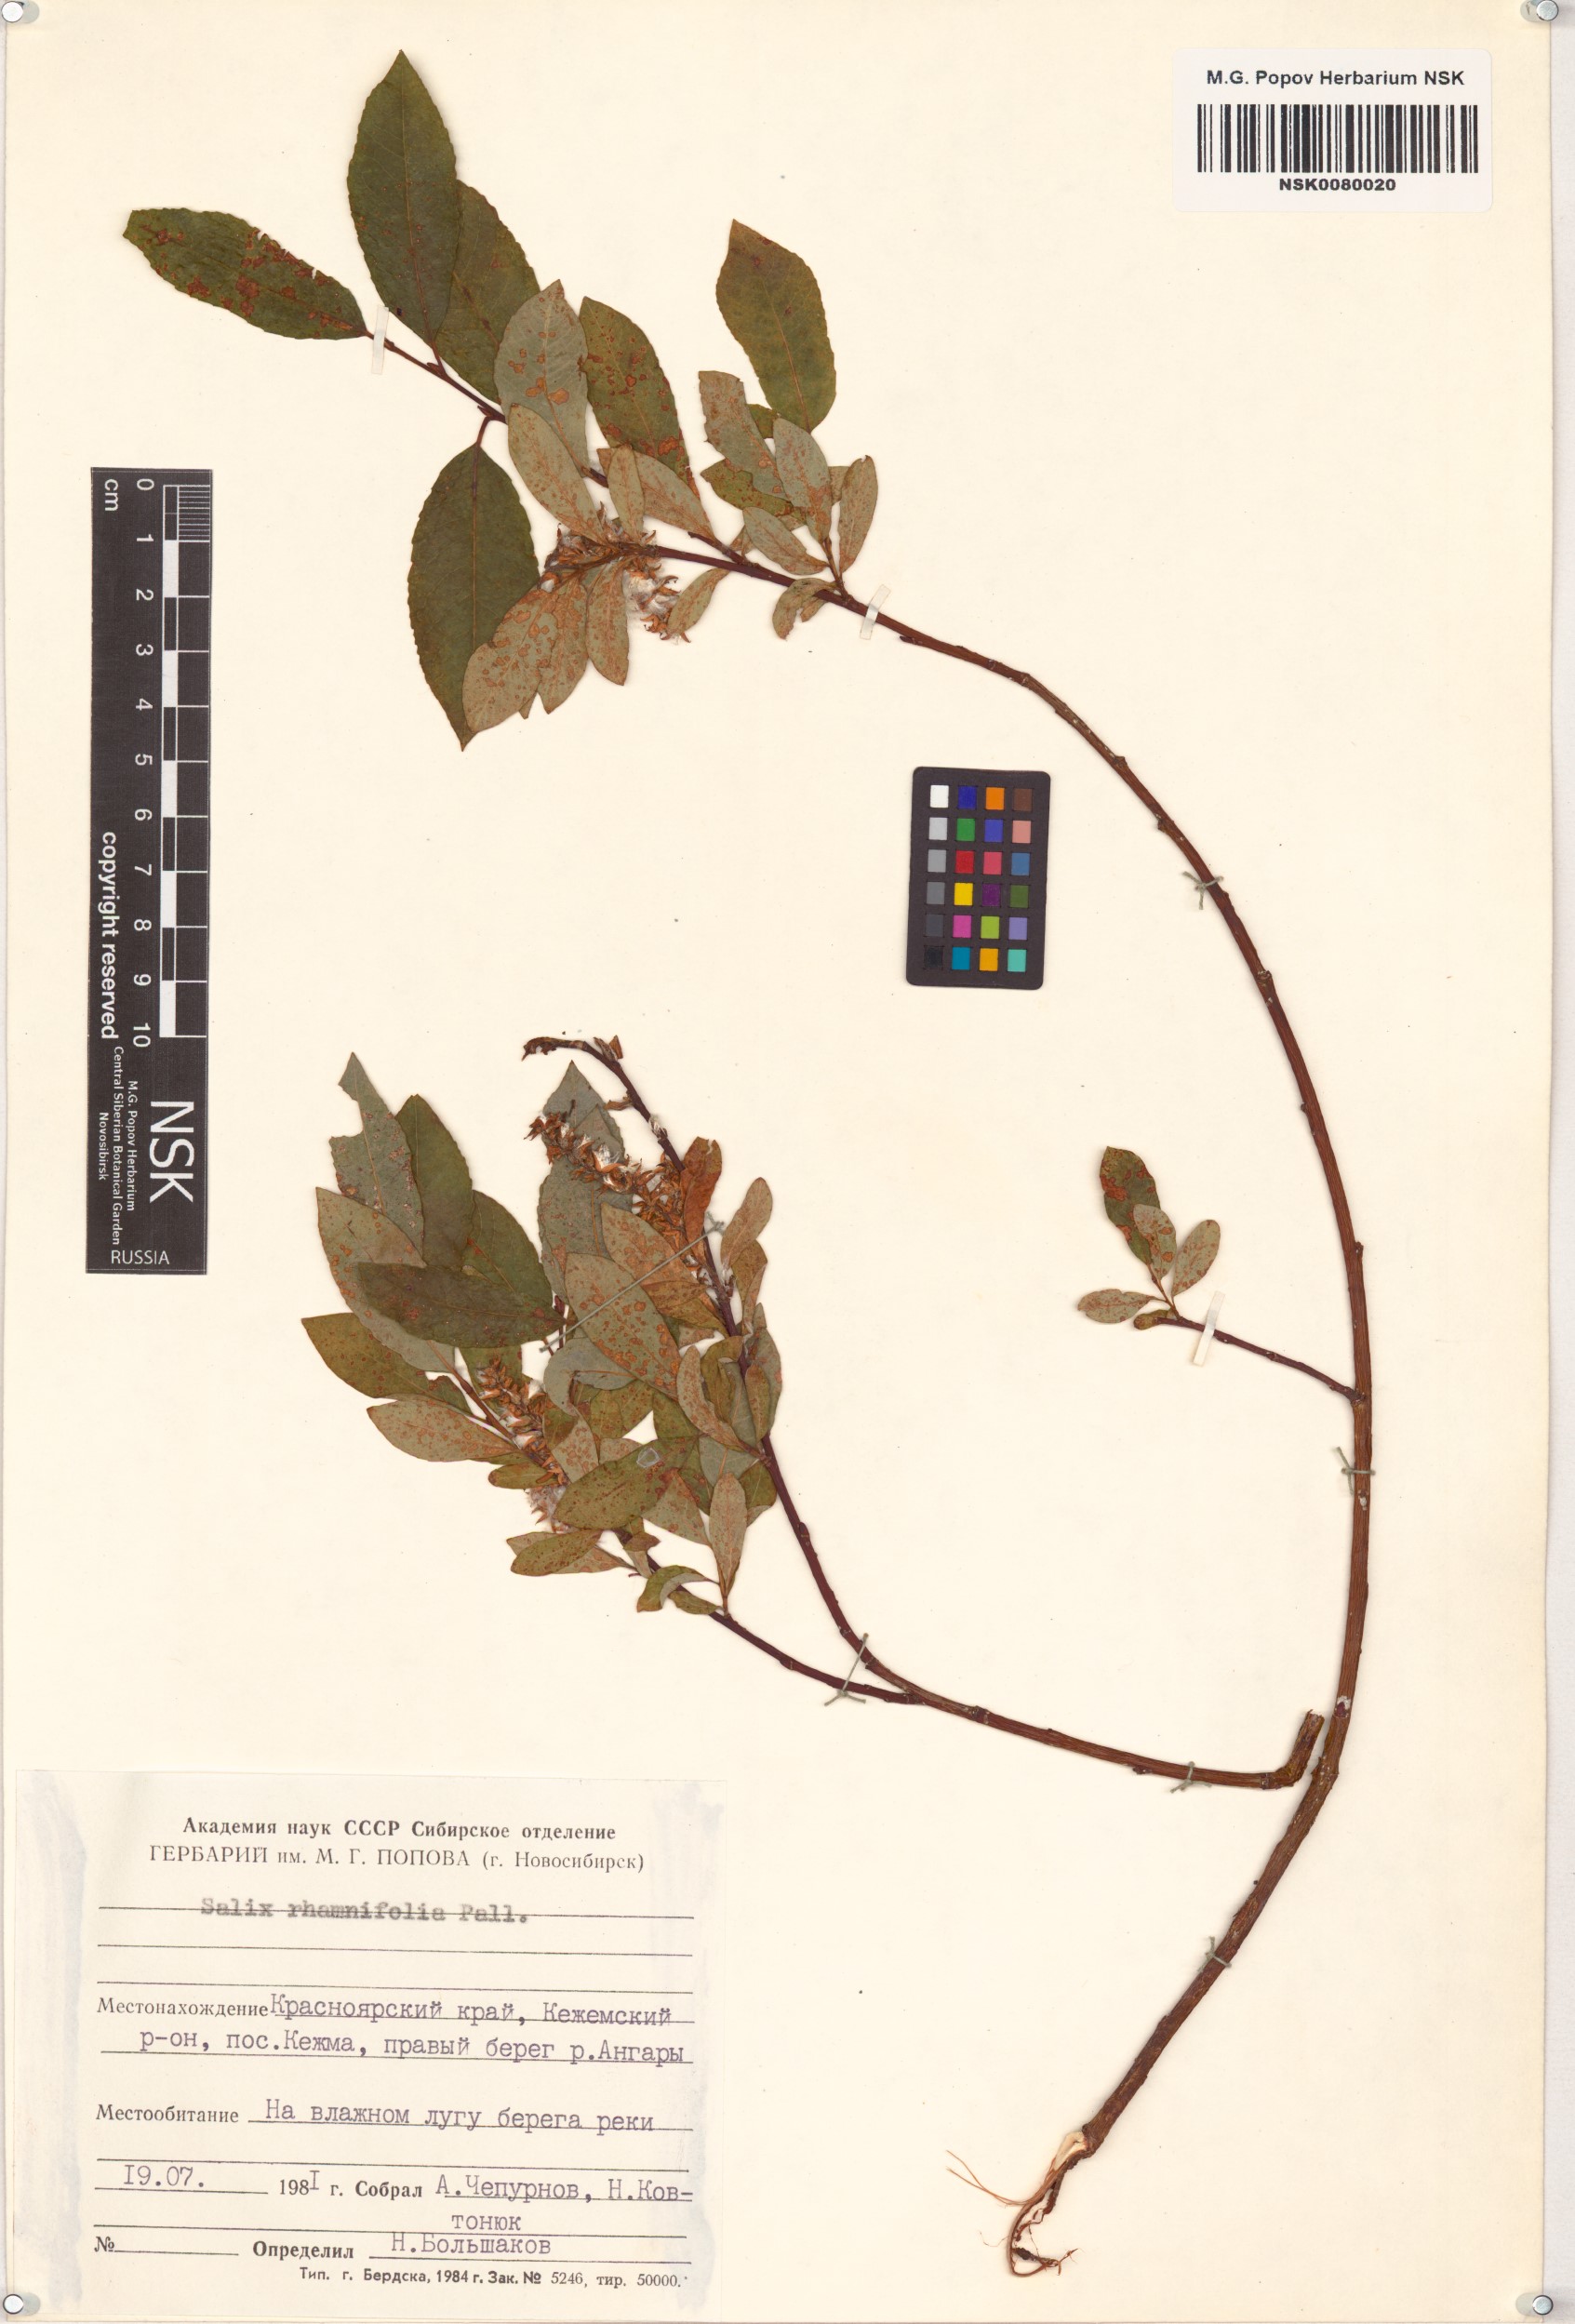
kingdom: Plantae
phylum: Tracheophyta
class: Magnoliopsida
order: Malpighiales
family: Salicaceae
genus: Salix
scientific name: Salix rhamnifolia
